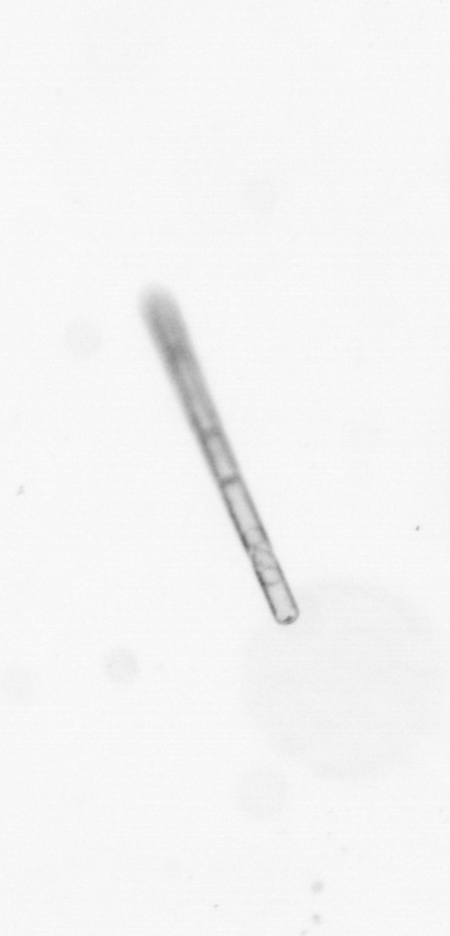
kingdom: Chromista
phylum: Ochrophyta
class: Bacillariophyceae
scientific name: Bacillariophyceae
